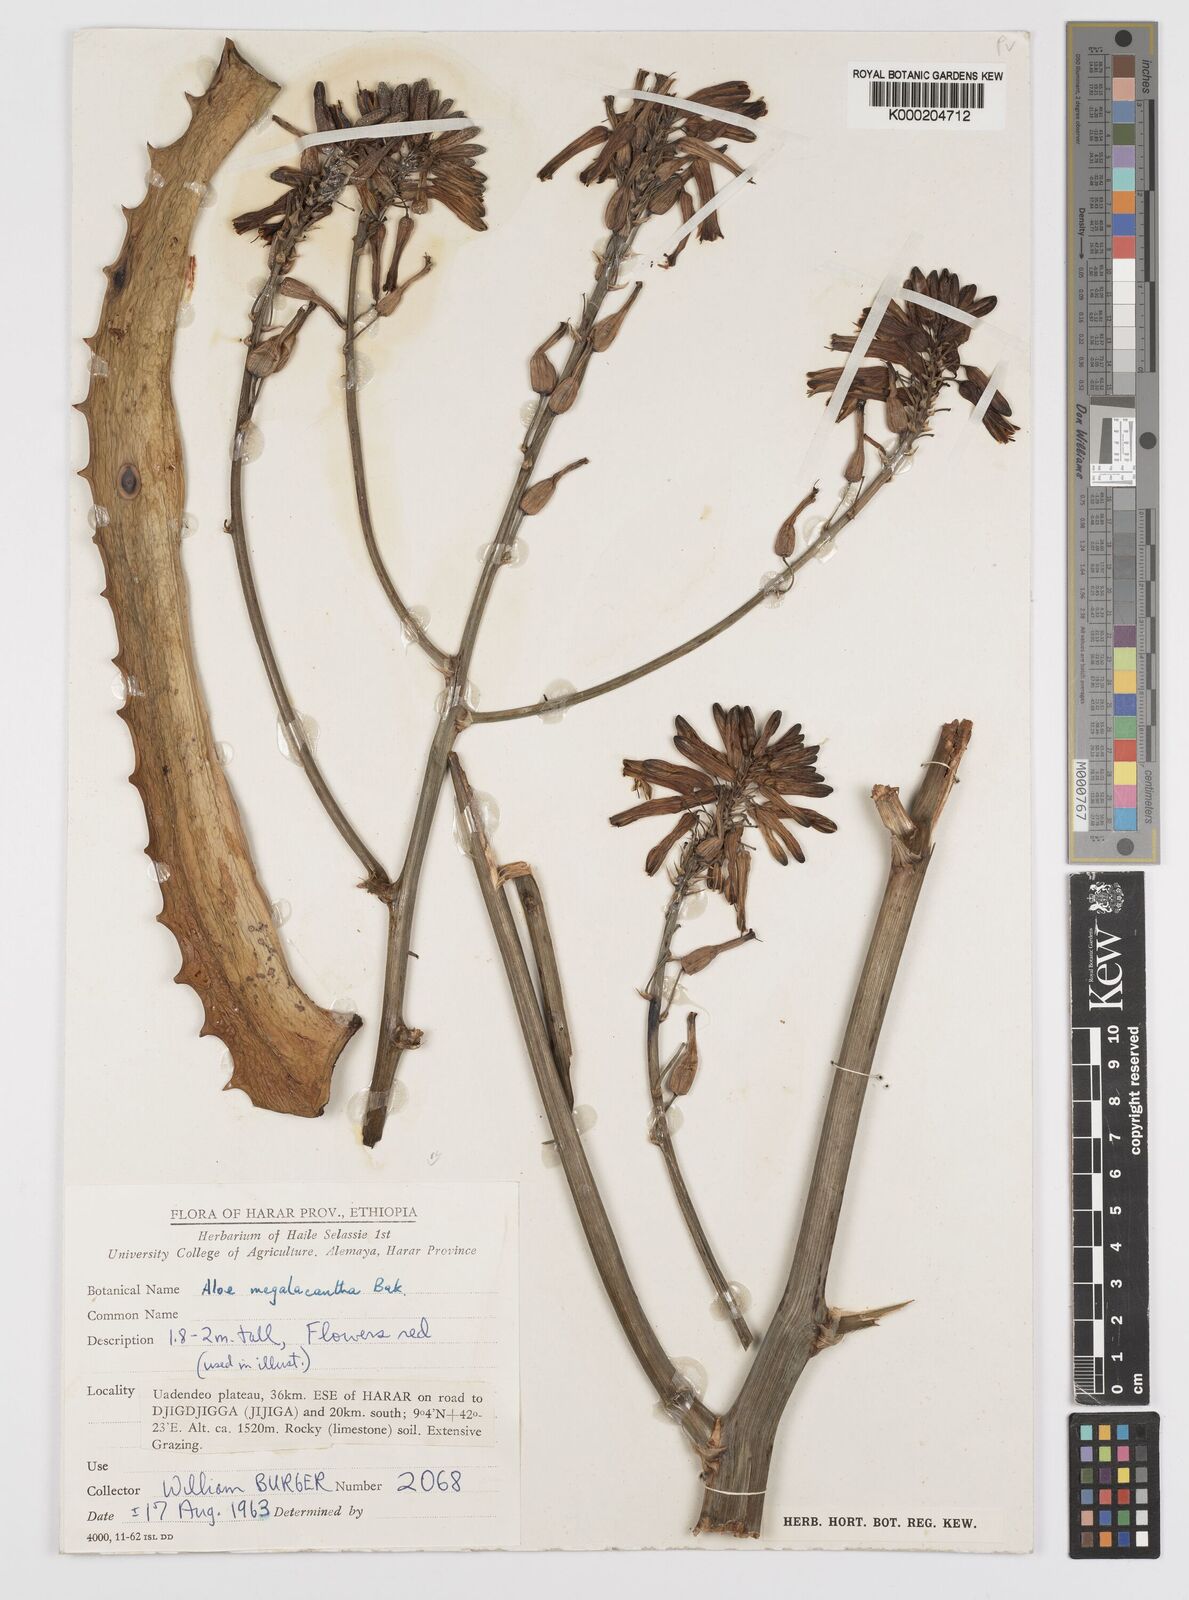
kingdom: Plantae
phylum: Tracheophyta
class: Liliopsida
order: Asparagales
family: Asphodelaceae
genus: Aloe
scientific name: Aloe megalacantha
